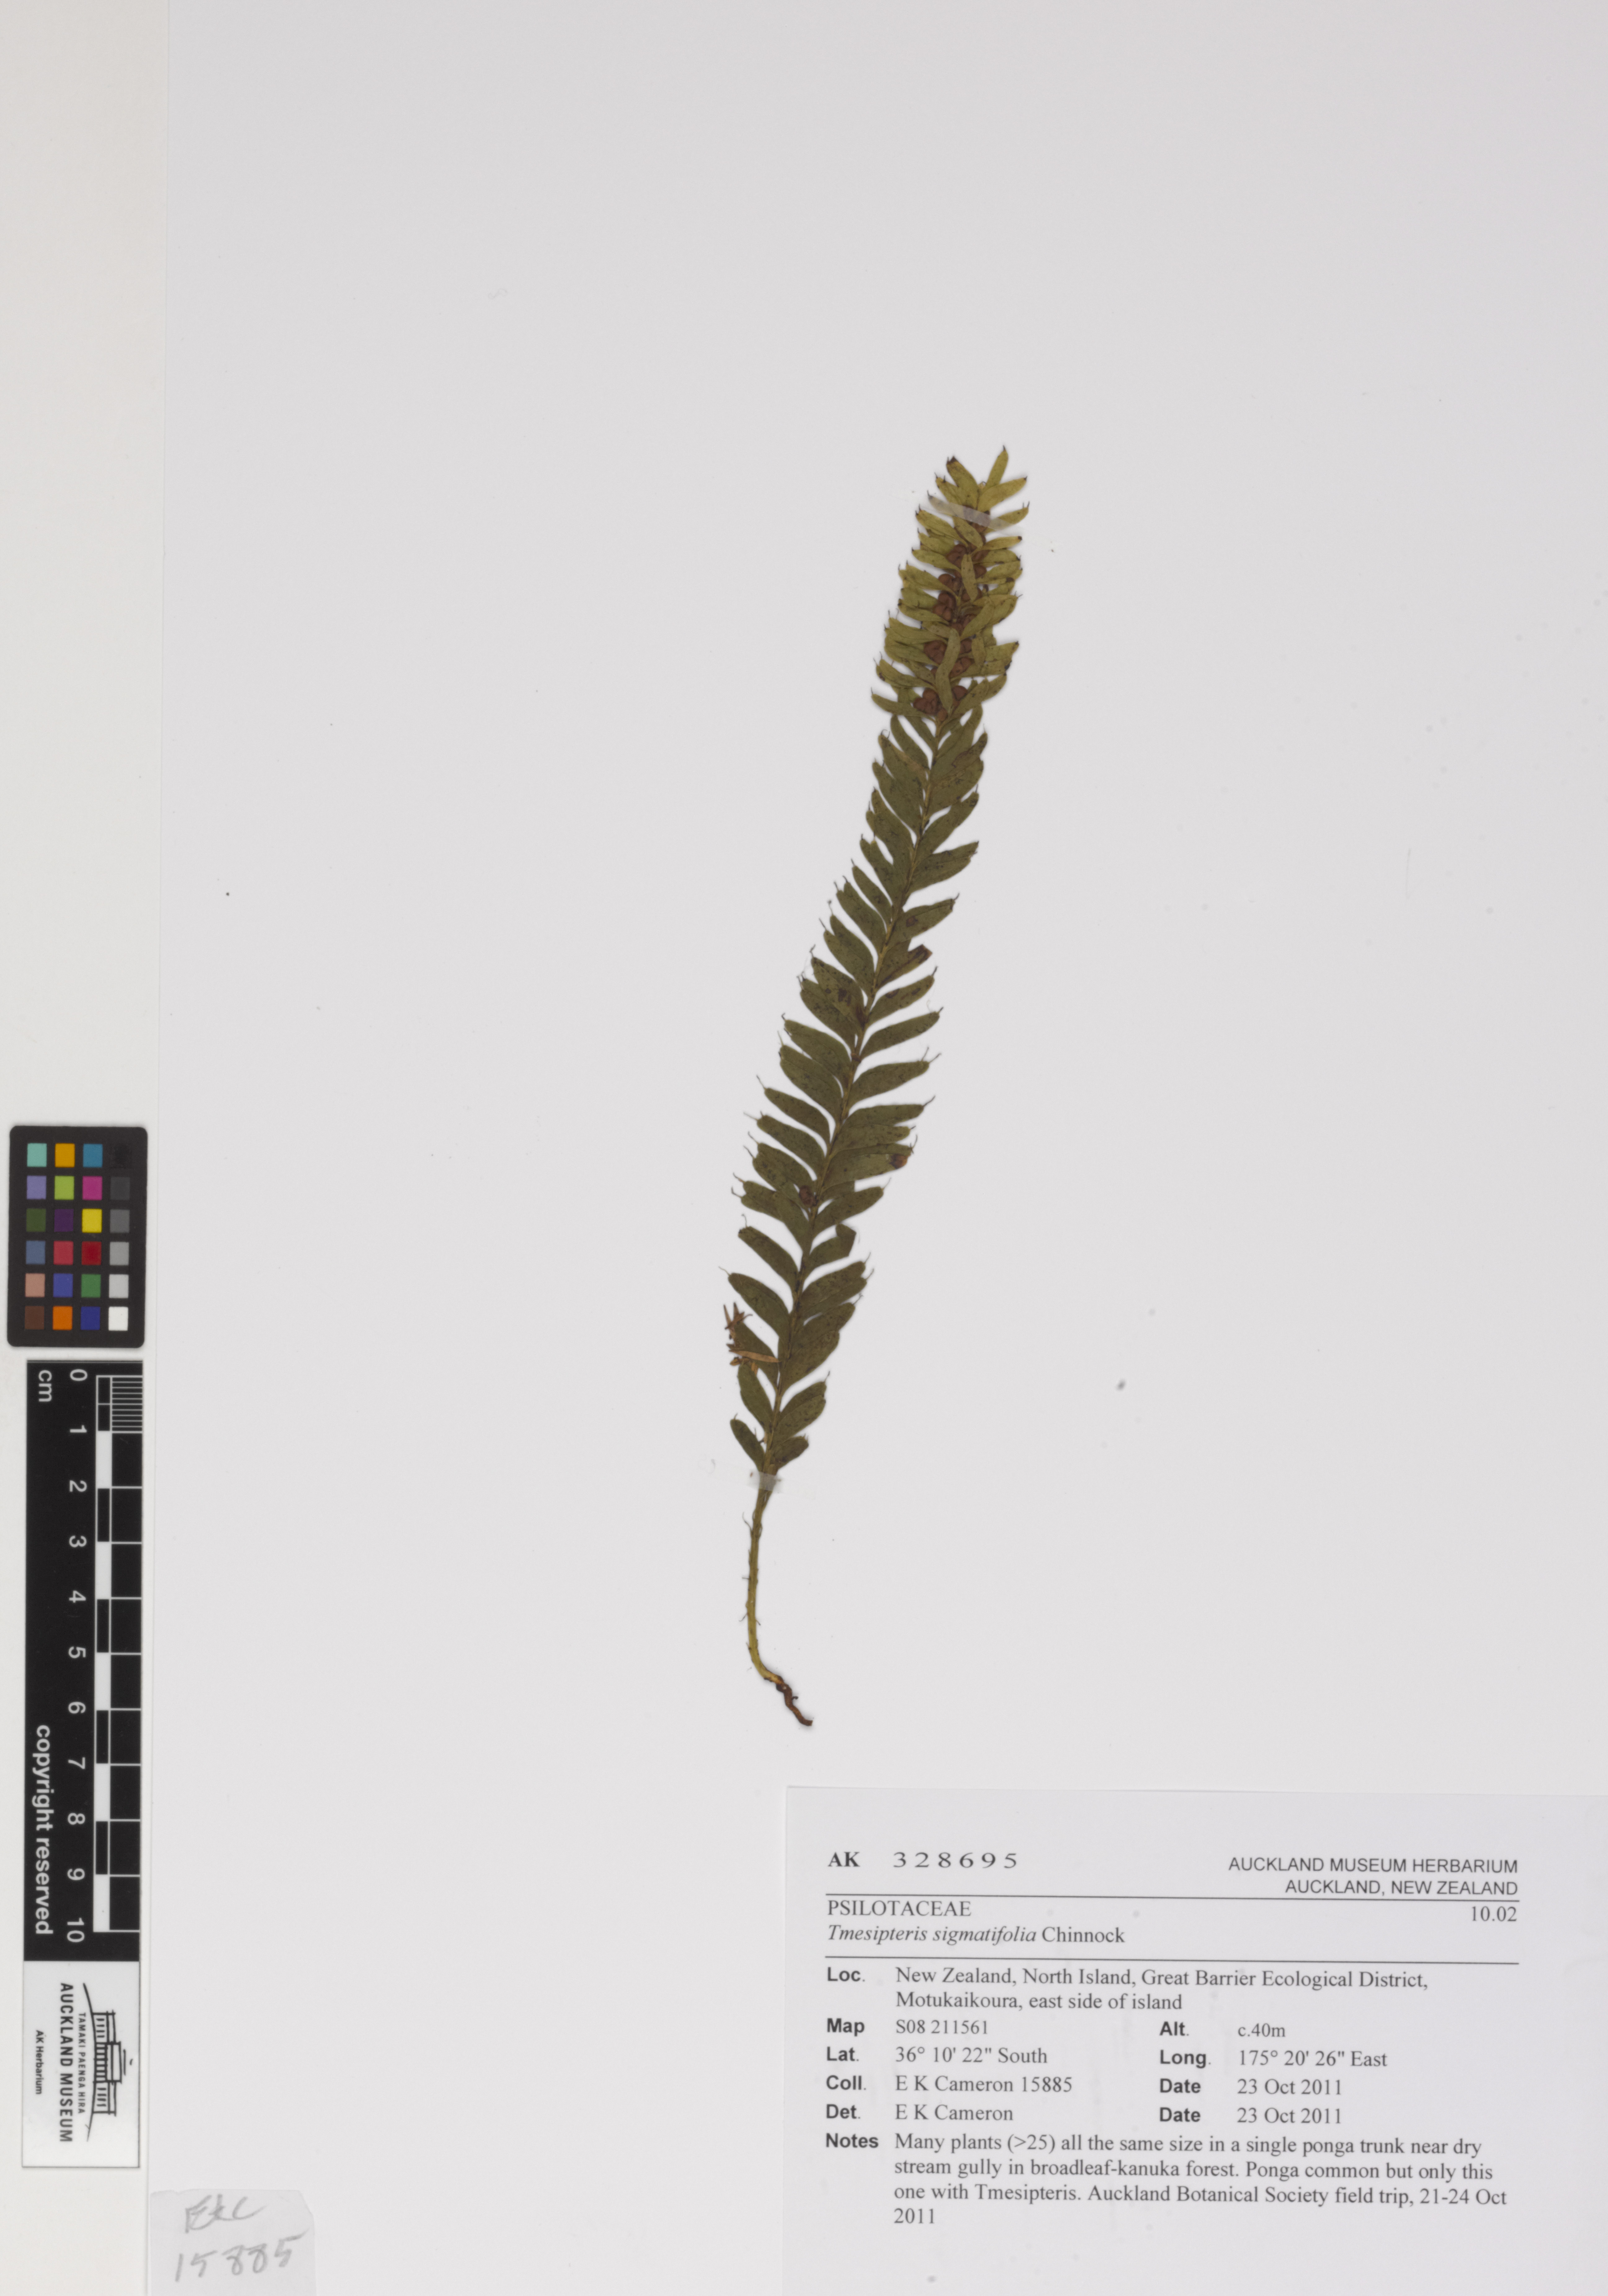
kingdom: Plantae
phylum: Tracheophyta
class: Polypodiopsida
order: Psilotales
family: Psilotaceae
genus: Tmesipteris
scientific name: Tmesipteris sigmatifolia
